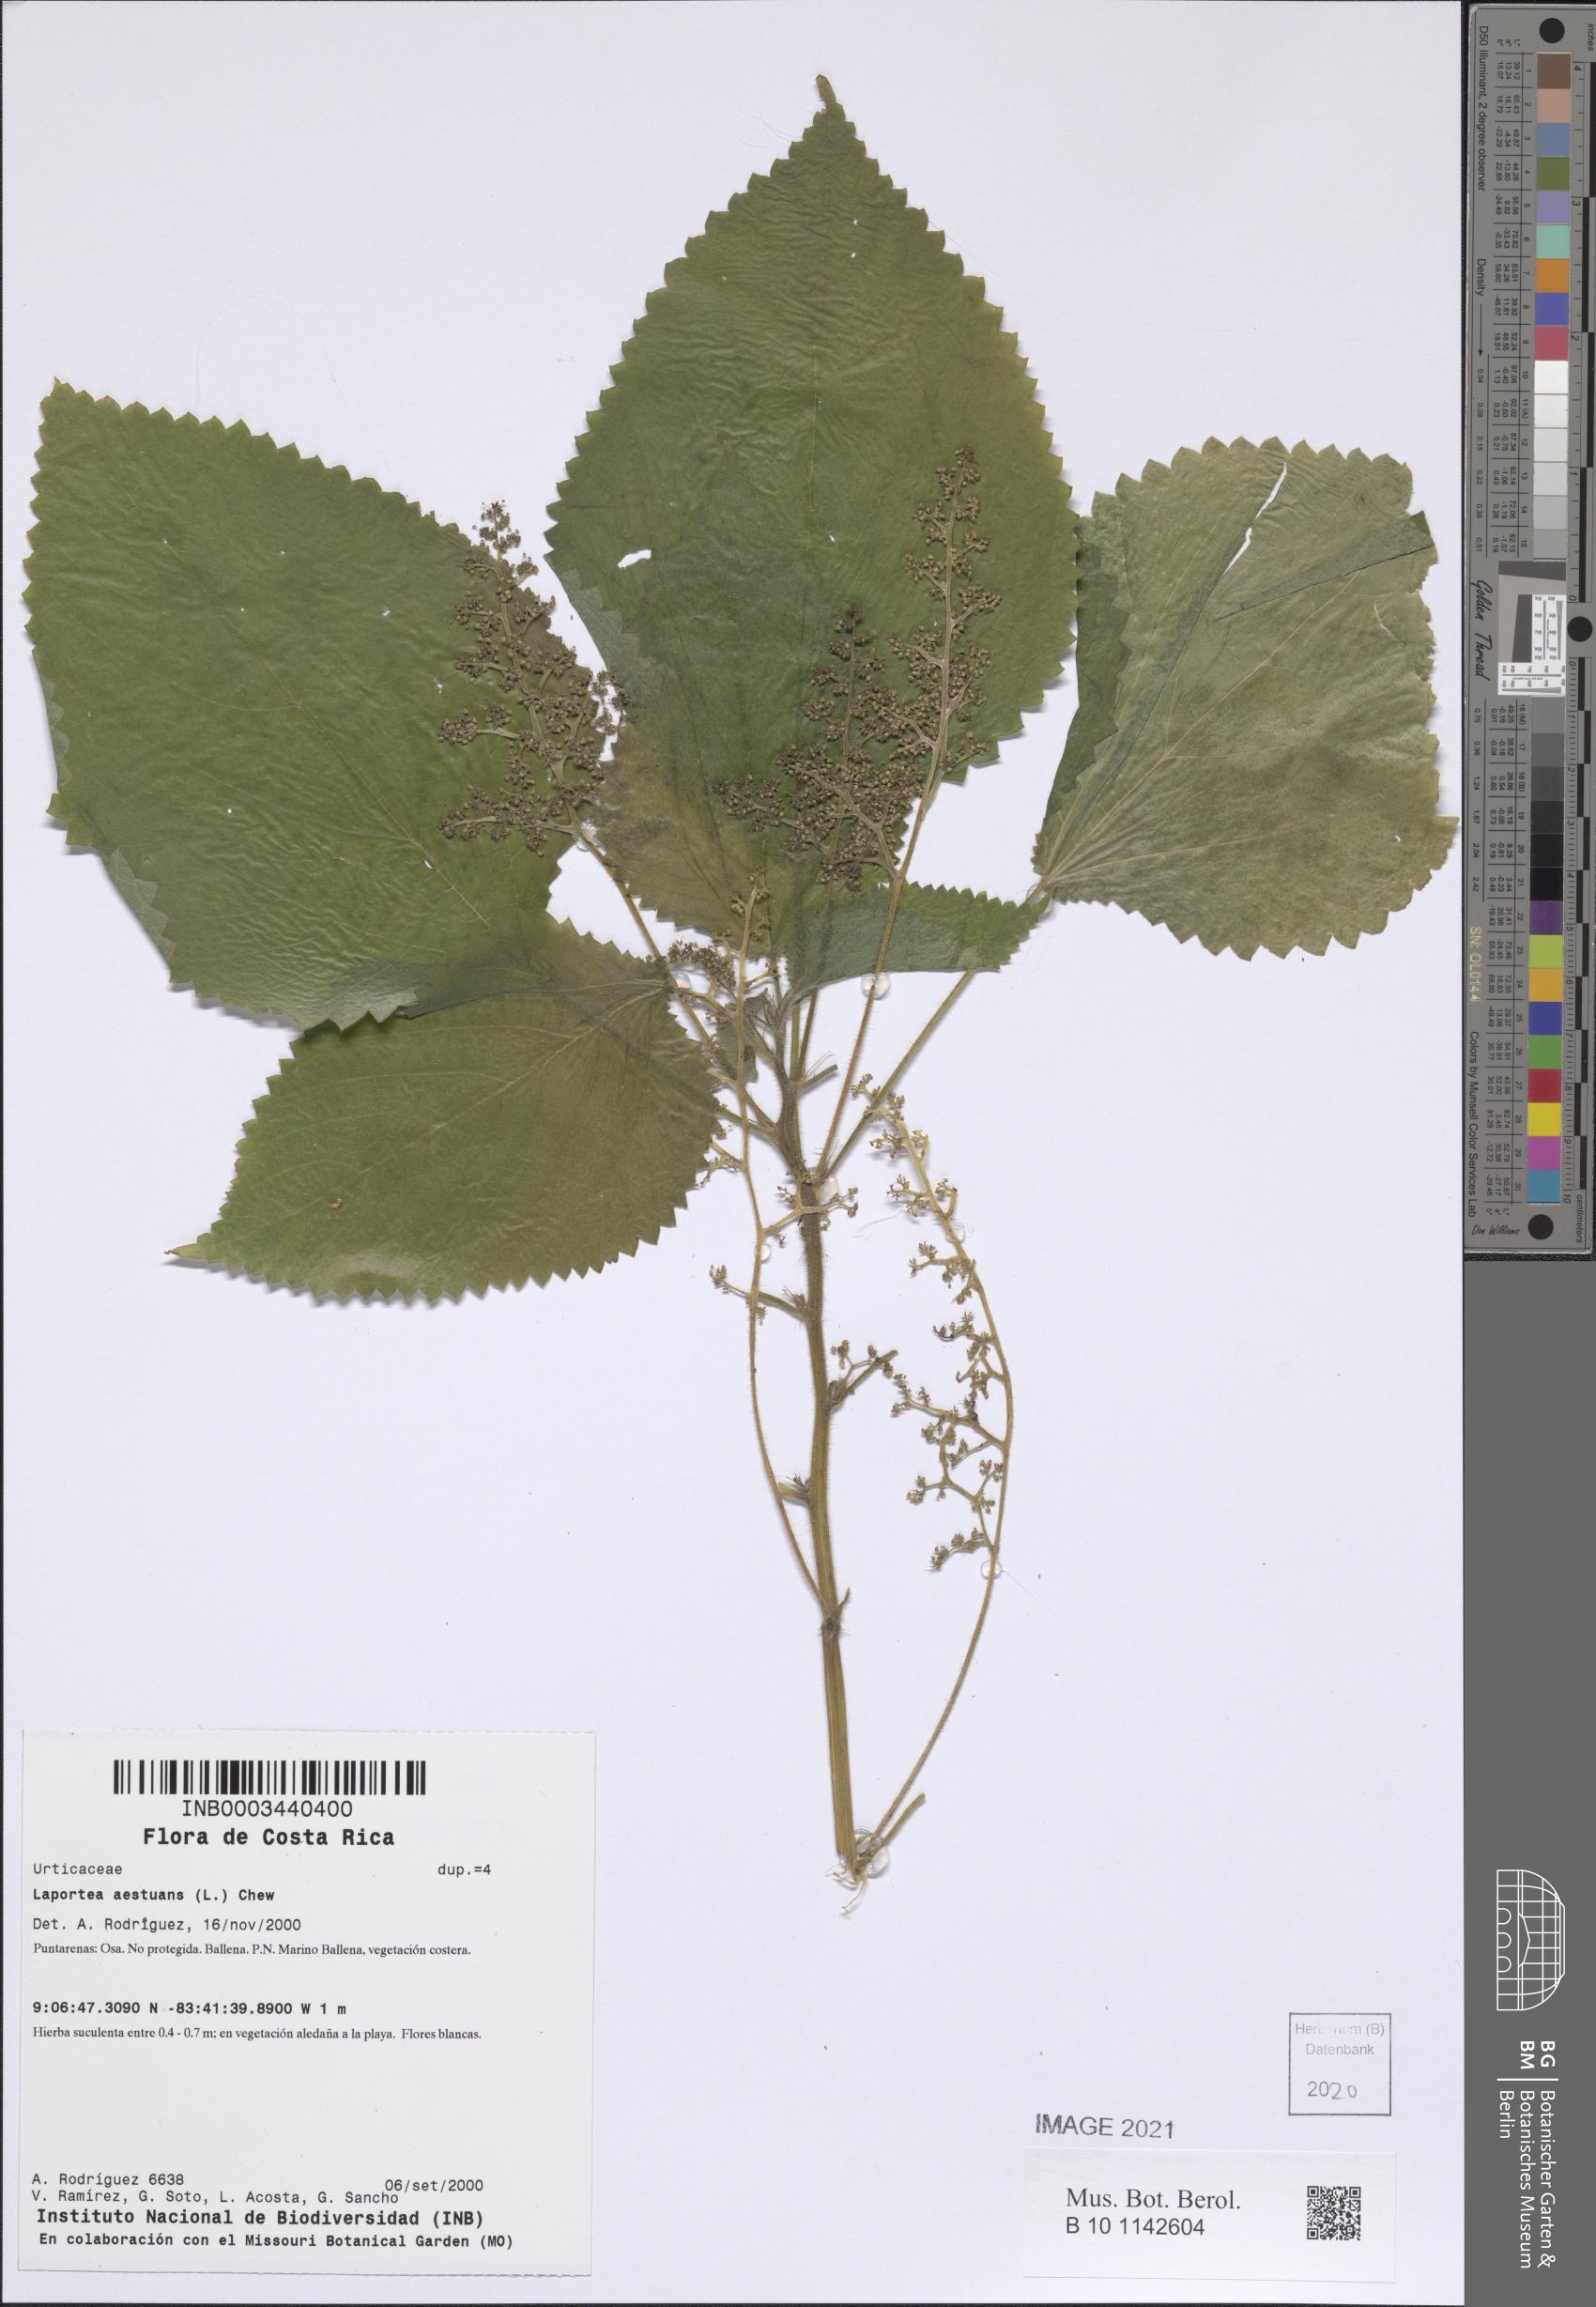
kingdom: Plantae
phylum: Tracheophyta
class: Magnoliopsida
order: Rosales
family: Urticaceae
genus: Laportea
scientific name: Laportea aestuans
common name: West indian woodnettle
